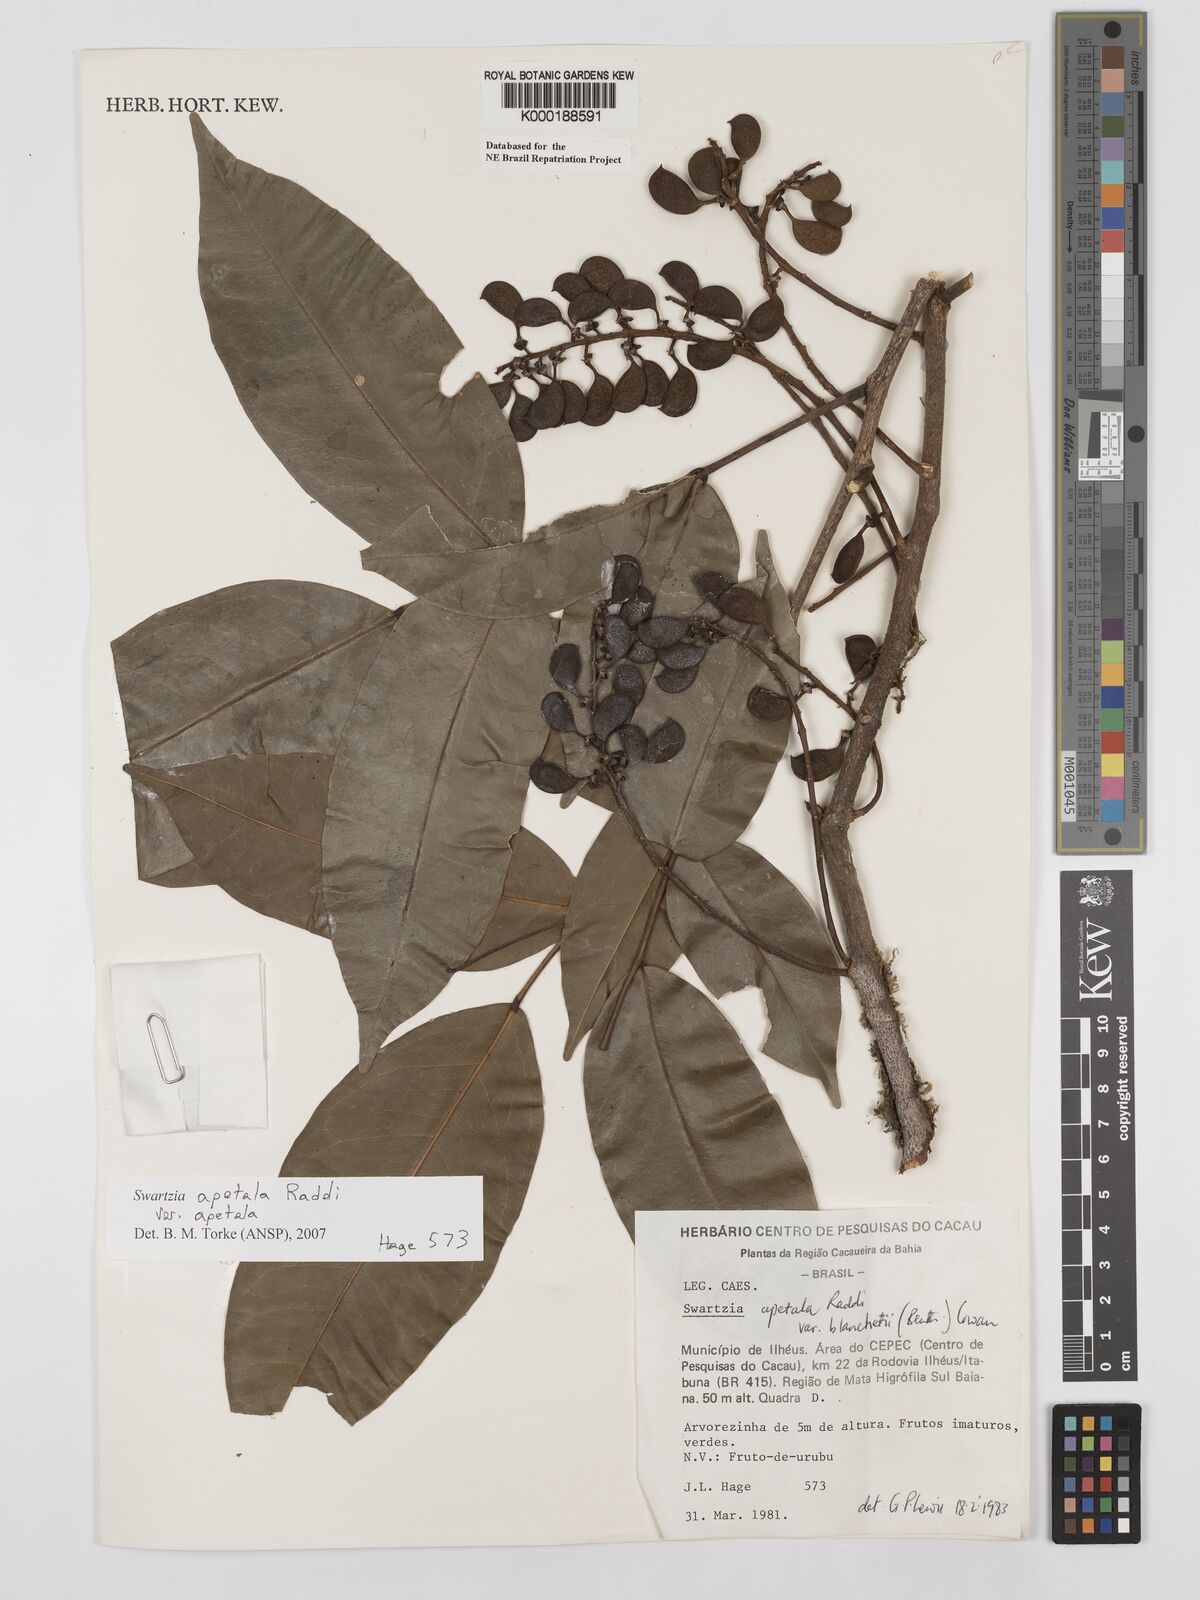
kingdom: Plantae
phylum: Tracheophyta
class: Magnoliopsida
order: Fabales
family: Fabaceae
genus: Swartzia
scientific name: Swartzia apetala
